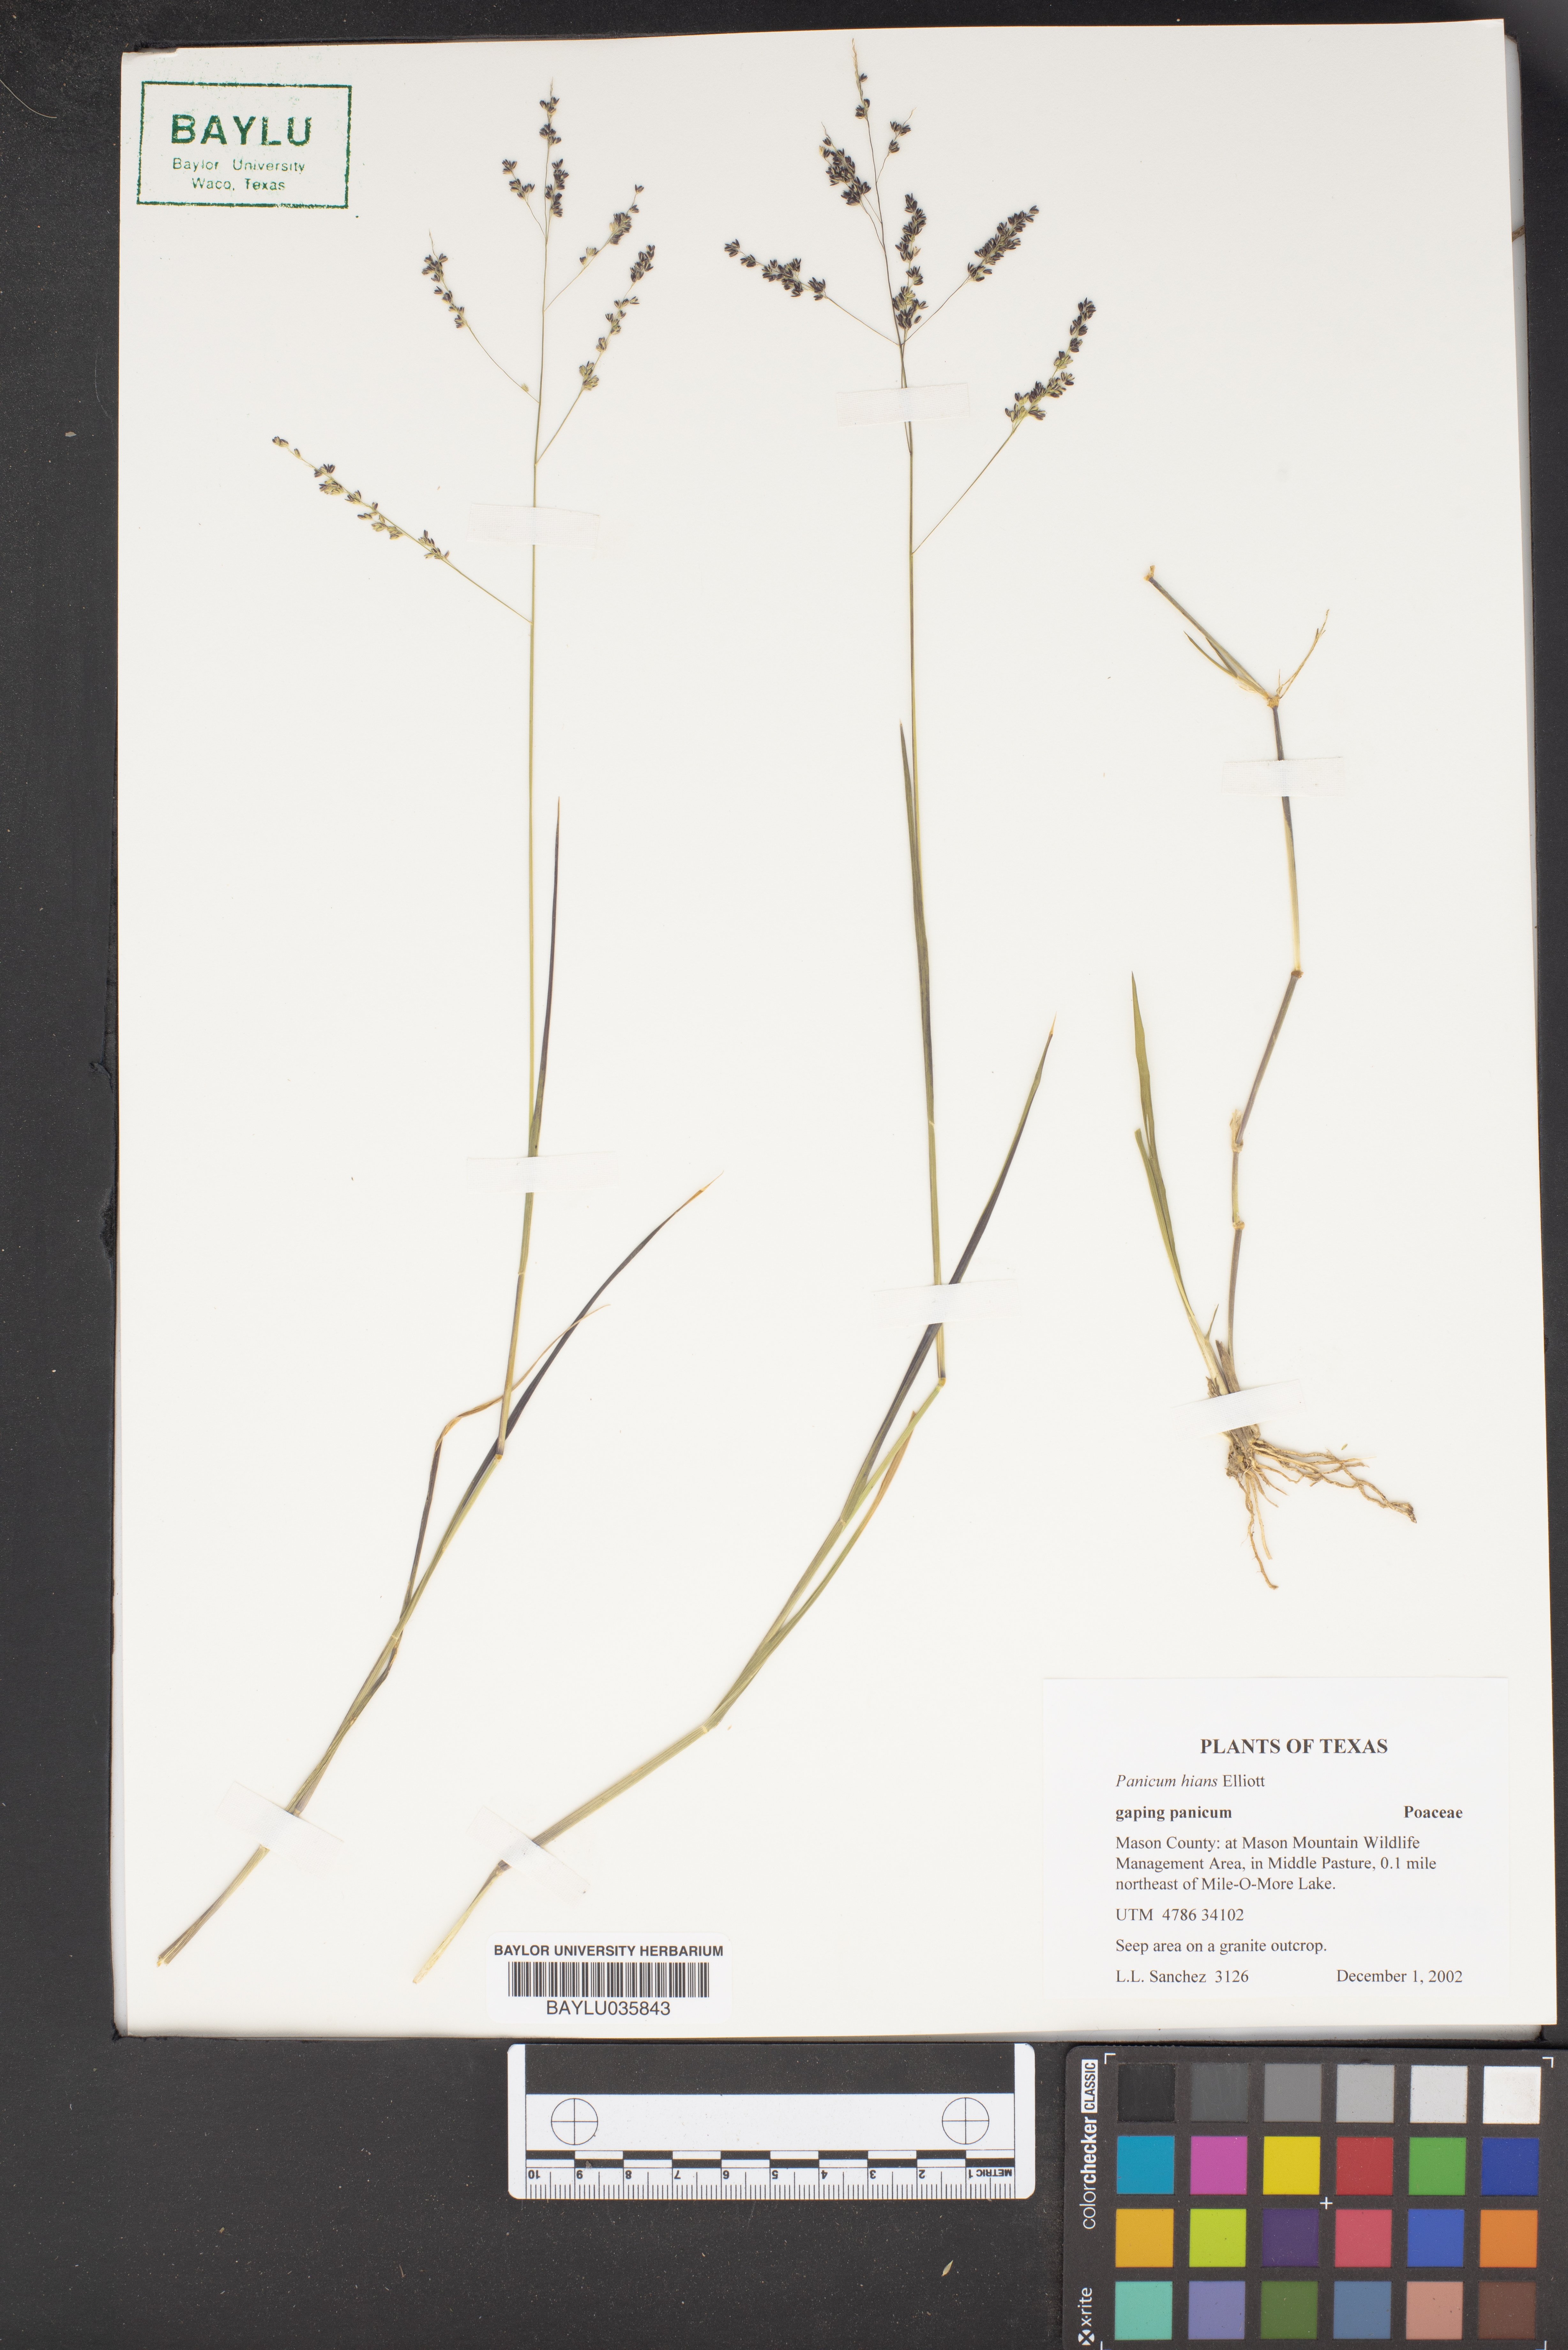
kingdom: Plantae
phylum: Tracheophyta
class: Liliopsida
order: Poales
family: Poaceae
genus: Coleataenia
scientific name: Coleataenia stenodes
